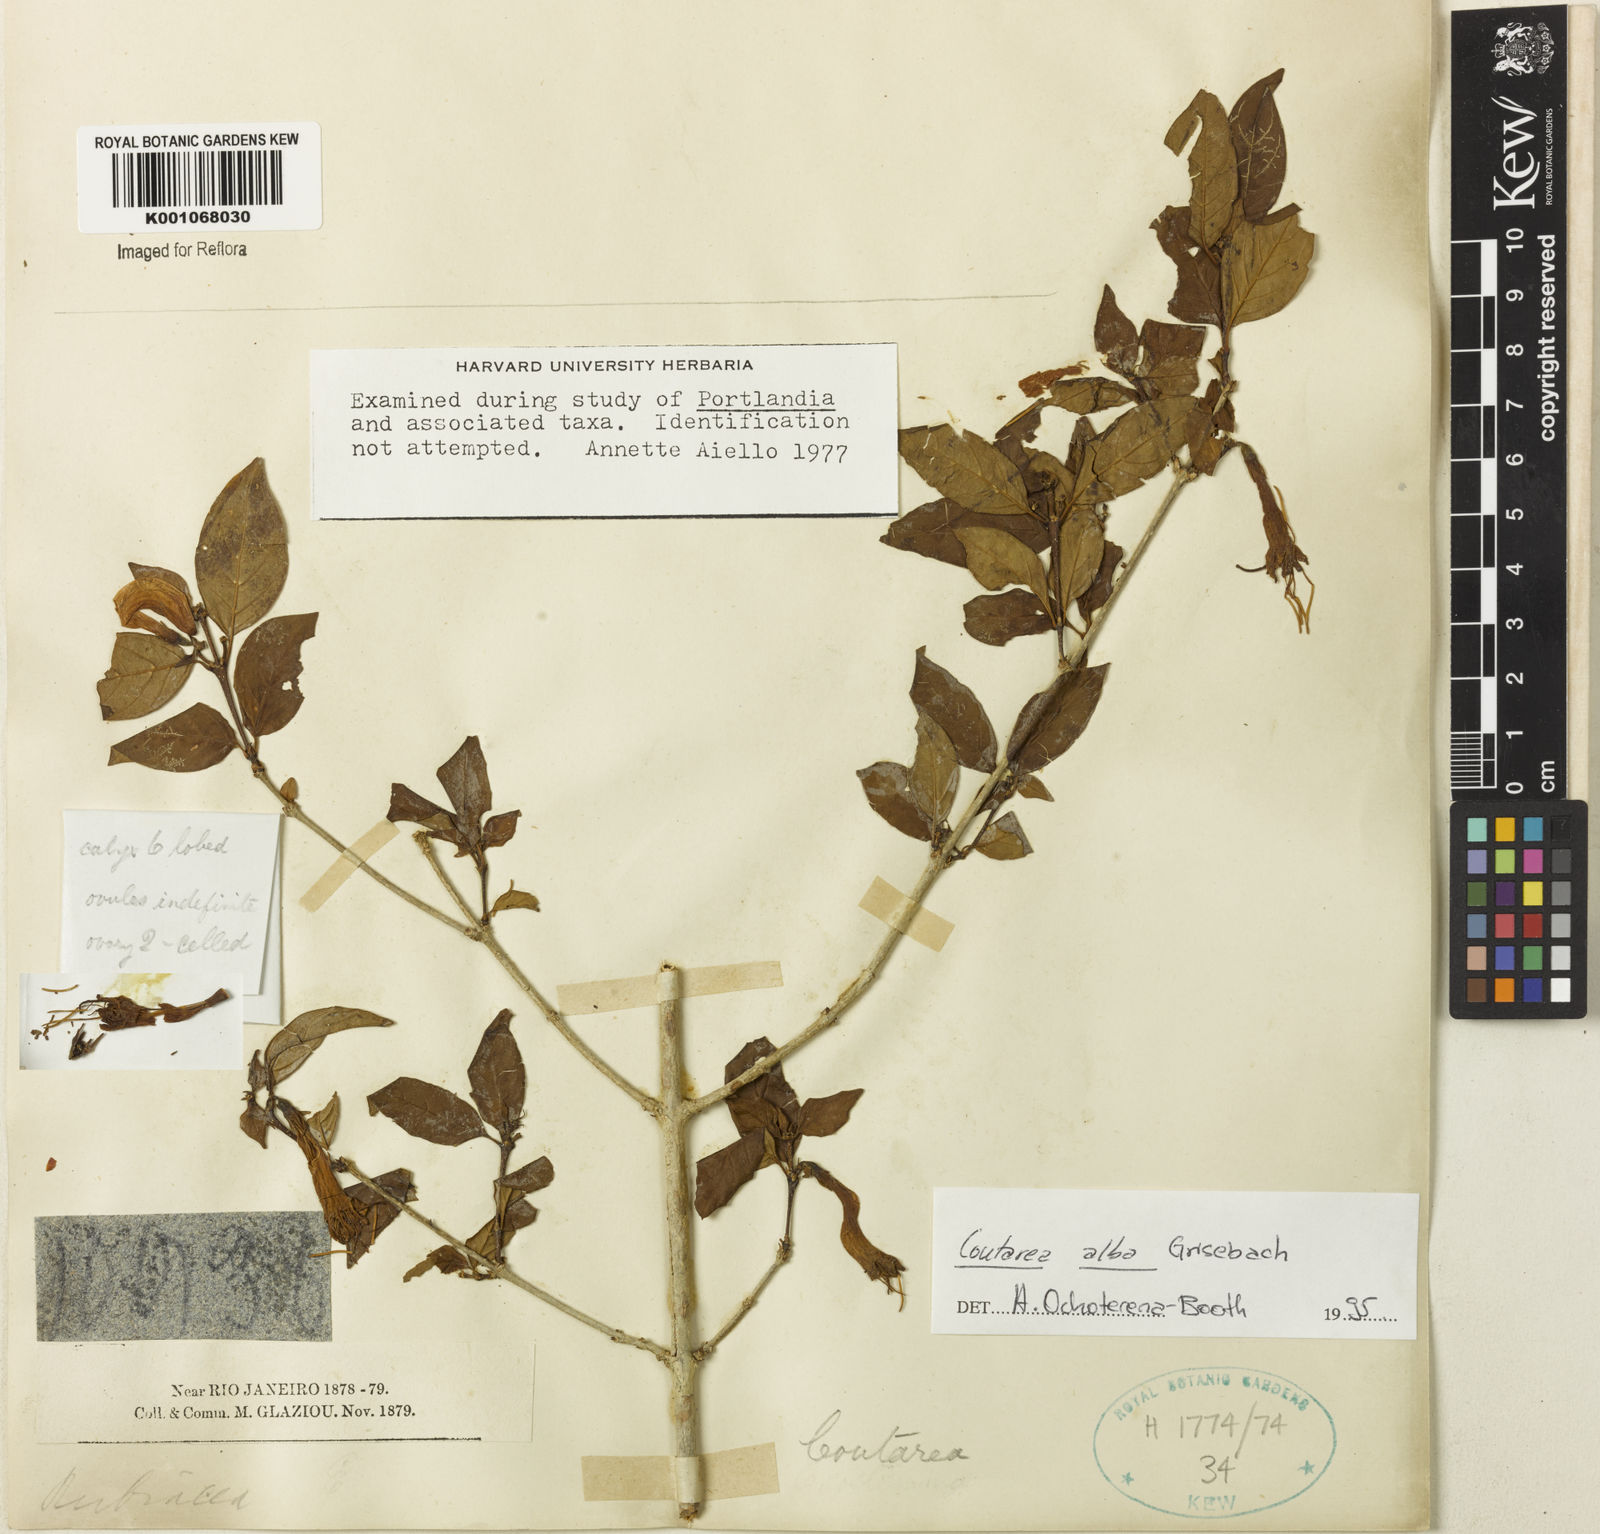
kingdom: Plantae
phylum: Tracheophyta
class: Magnoliopsida
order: Gentianales
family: Rubiaceae
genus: Coutarea
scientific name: Coutarea alba
